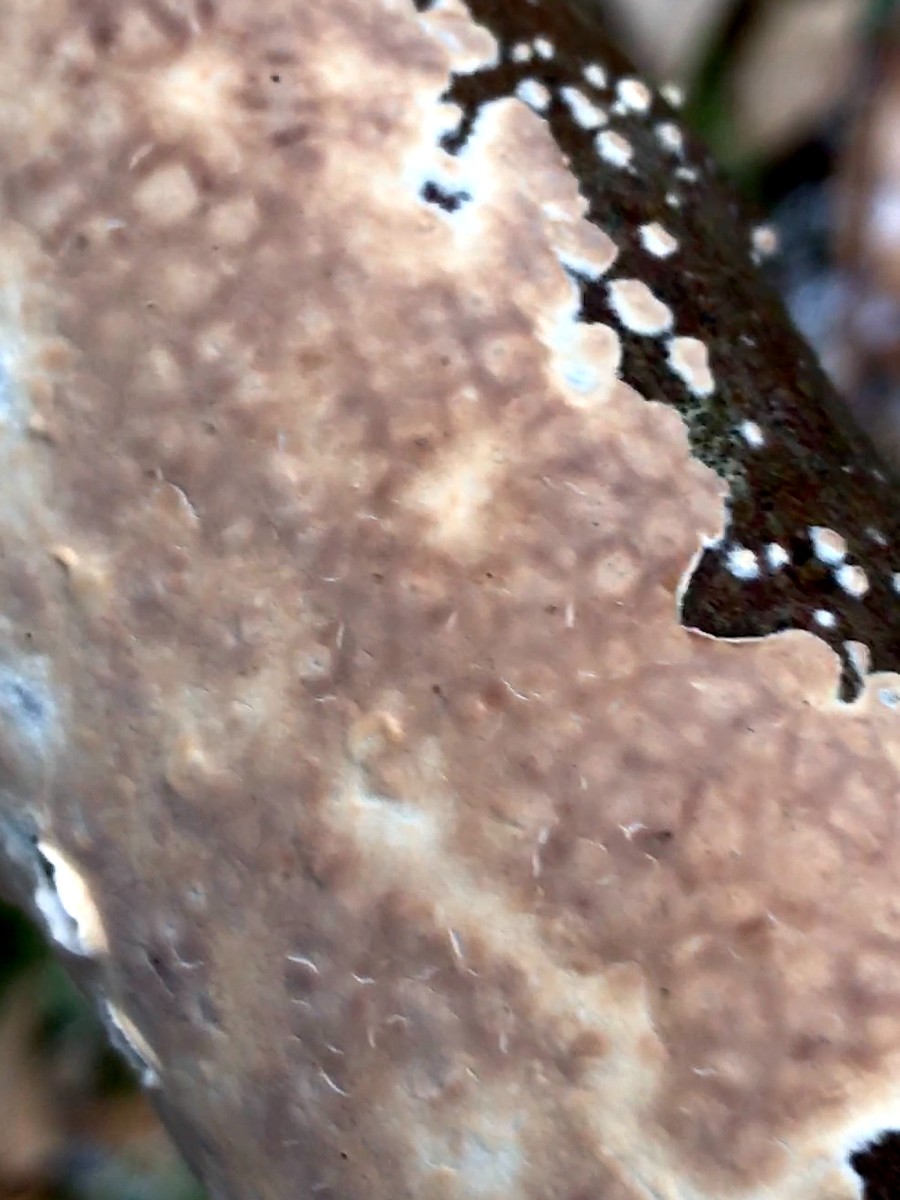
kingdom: Fungi
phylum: Basidiomycota
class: Agaricomycetes
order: Agaricales
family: Physalacriaceae
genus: Cylindrobasidium
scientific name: Cylindrobasidium evolvens
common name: sprækkehinde
